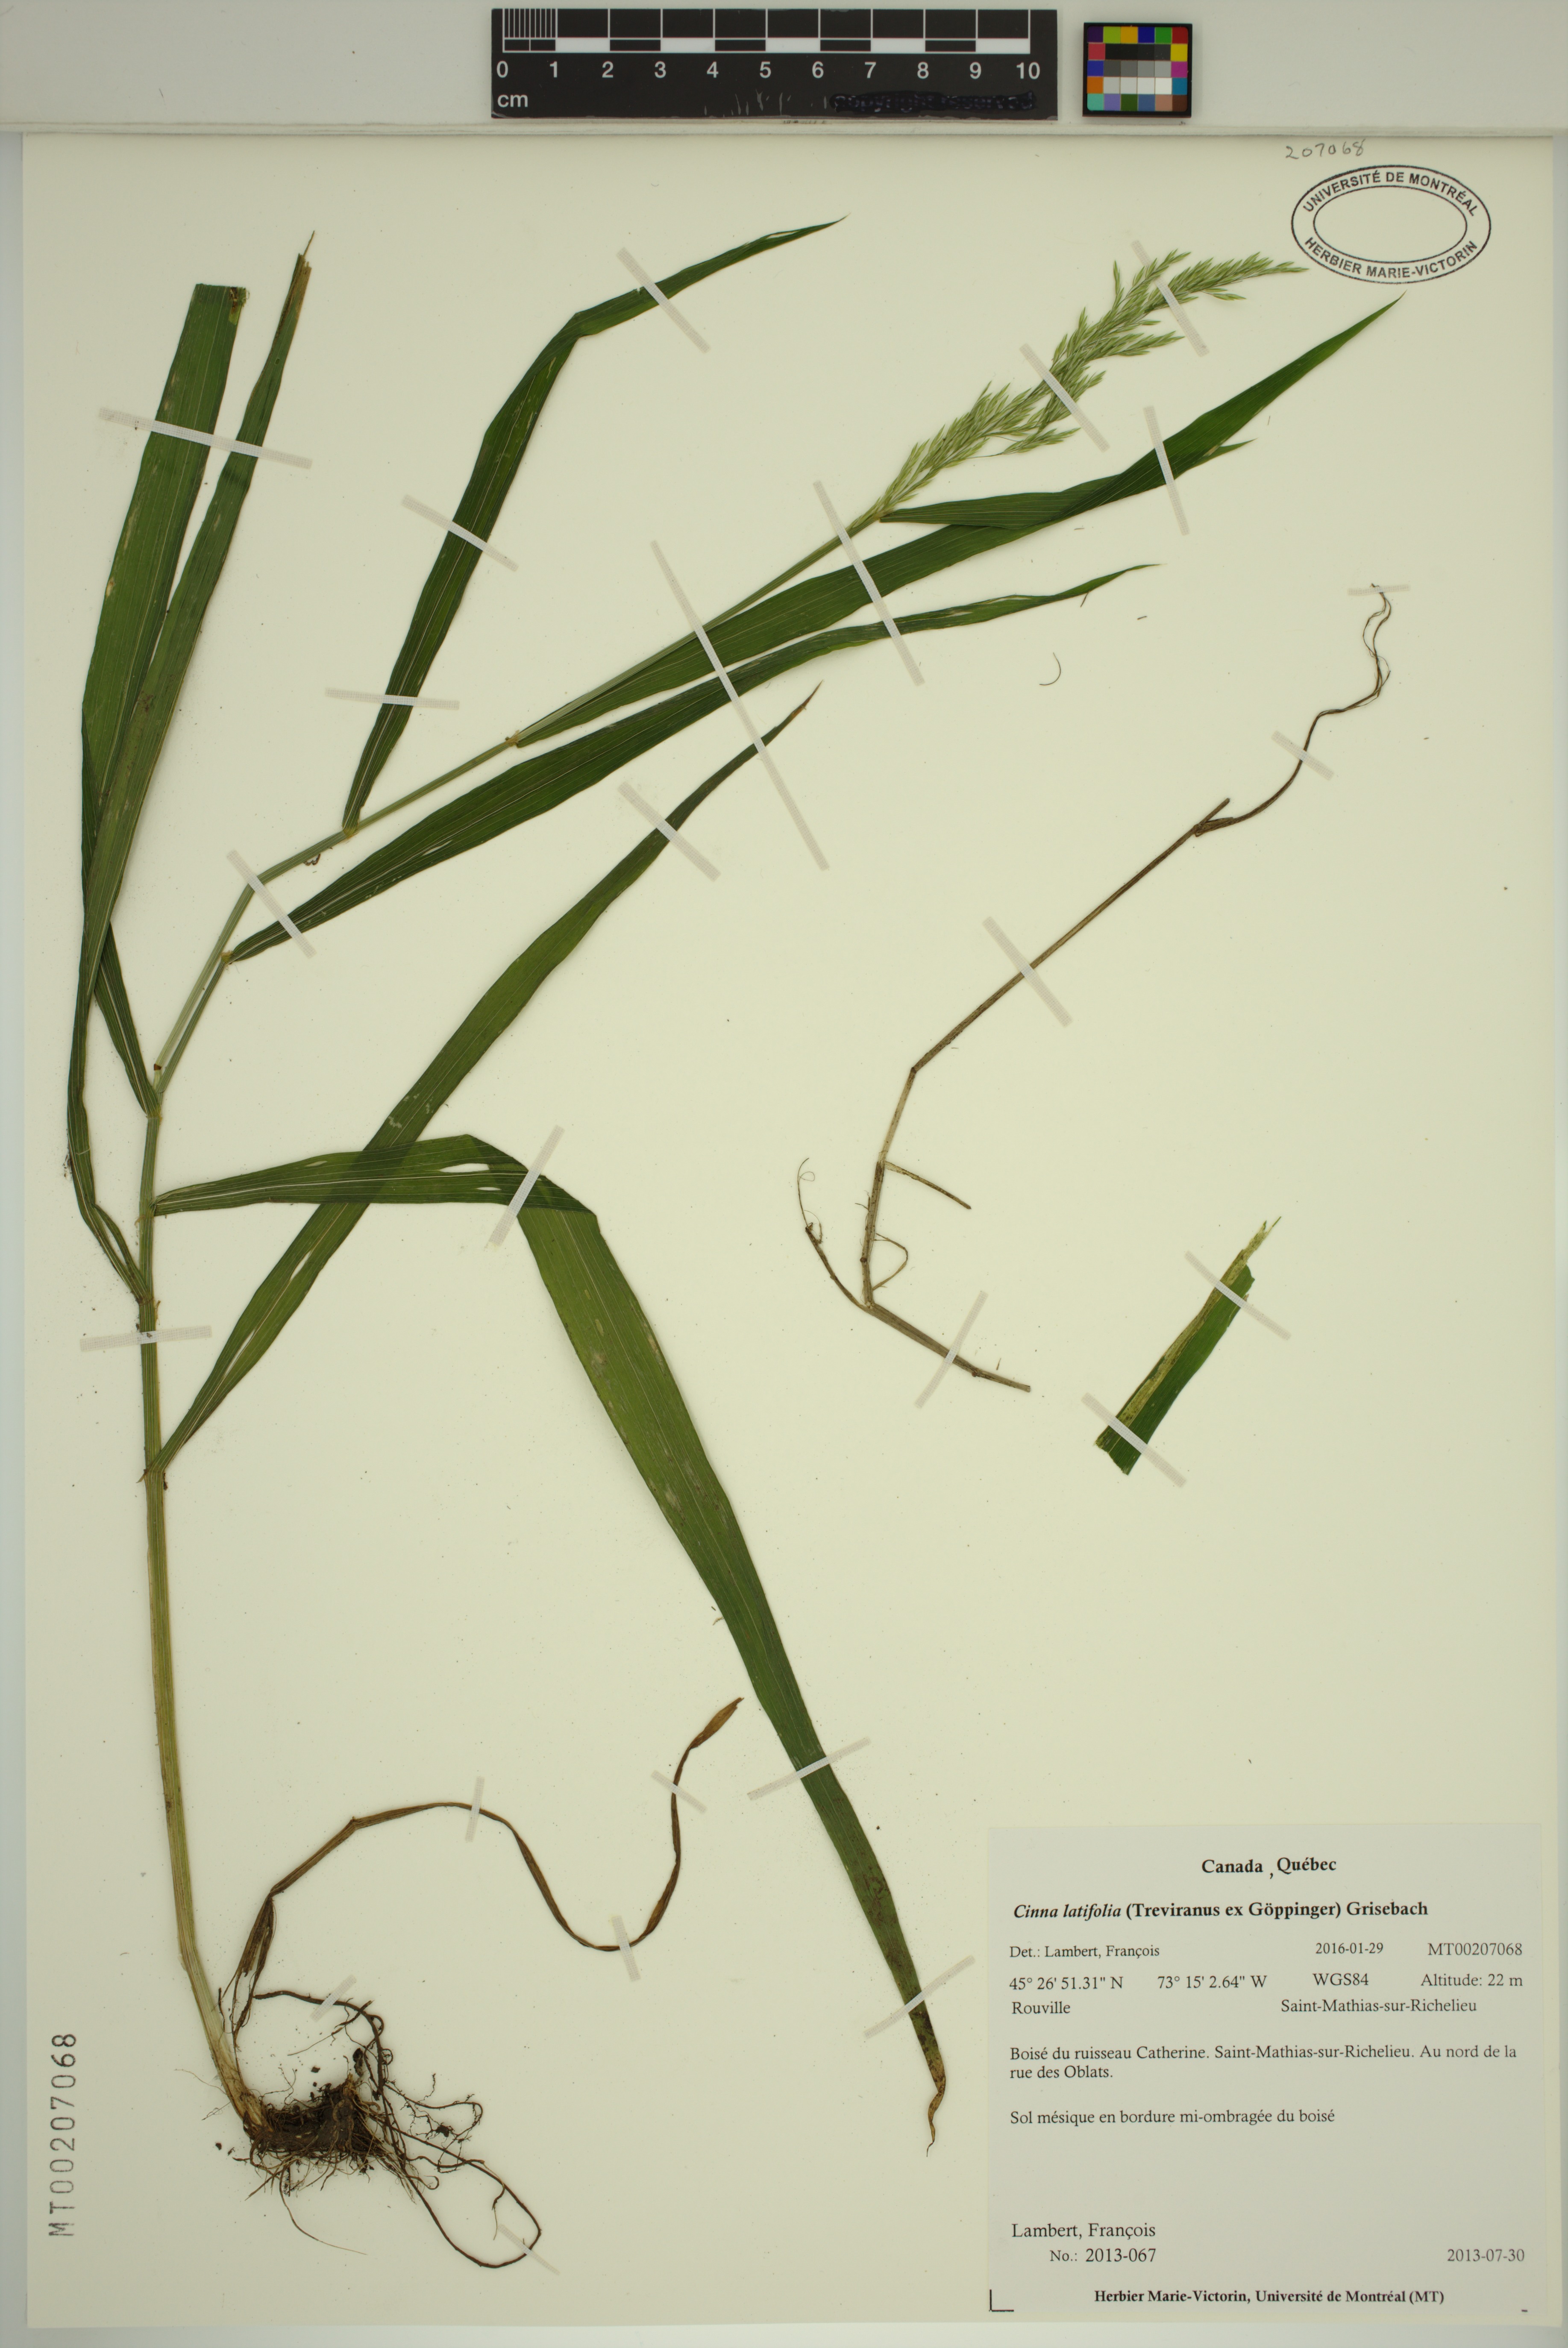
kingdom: Plantae
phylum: Tracheophyta
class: Liliopsida
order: Poales
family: Poaceae
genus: Cinna
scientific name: Cinna latifolia
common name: Drooping woodreed
